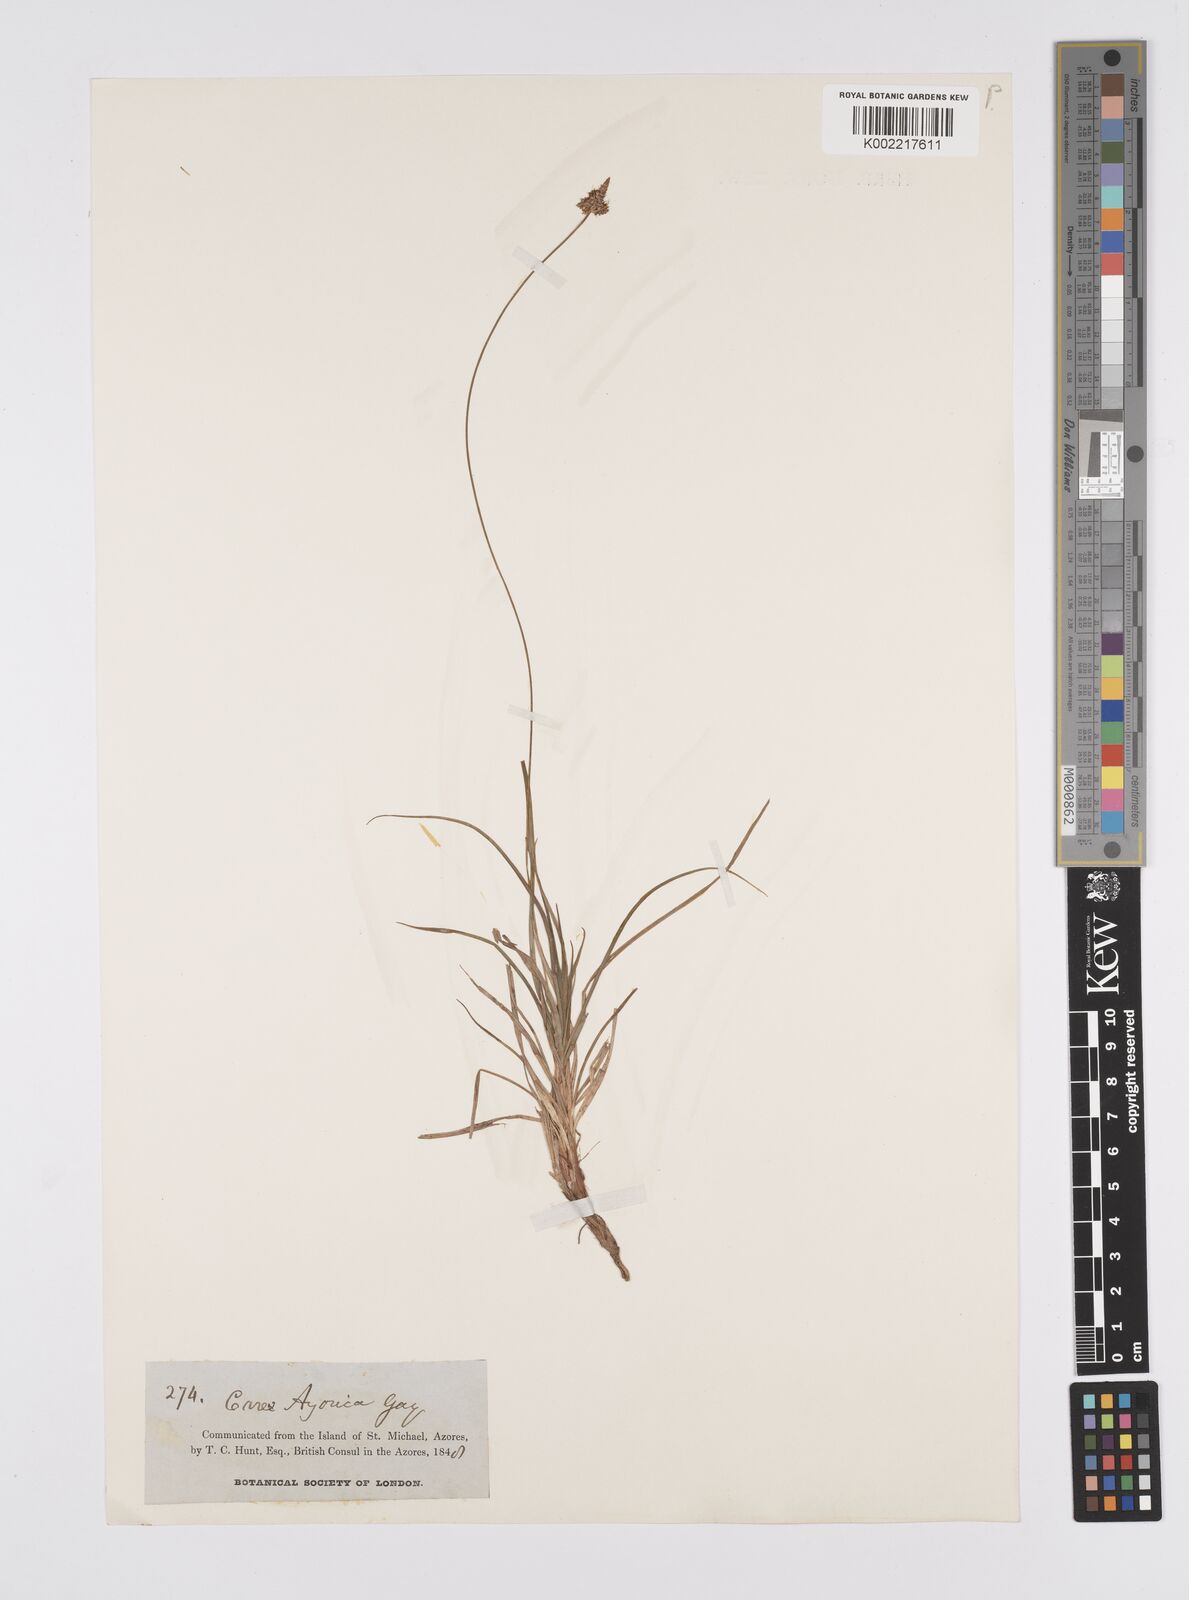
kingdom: Plantae
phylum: Tracheophyta
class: Liliopsida
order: Poales
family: Cyperaceae
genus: Carex
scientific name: Carex pilulifera
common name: Pill sedge
